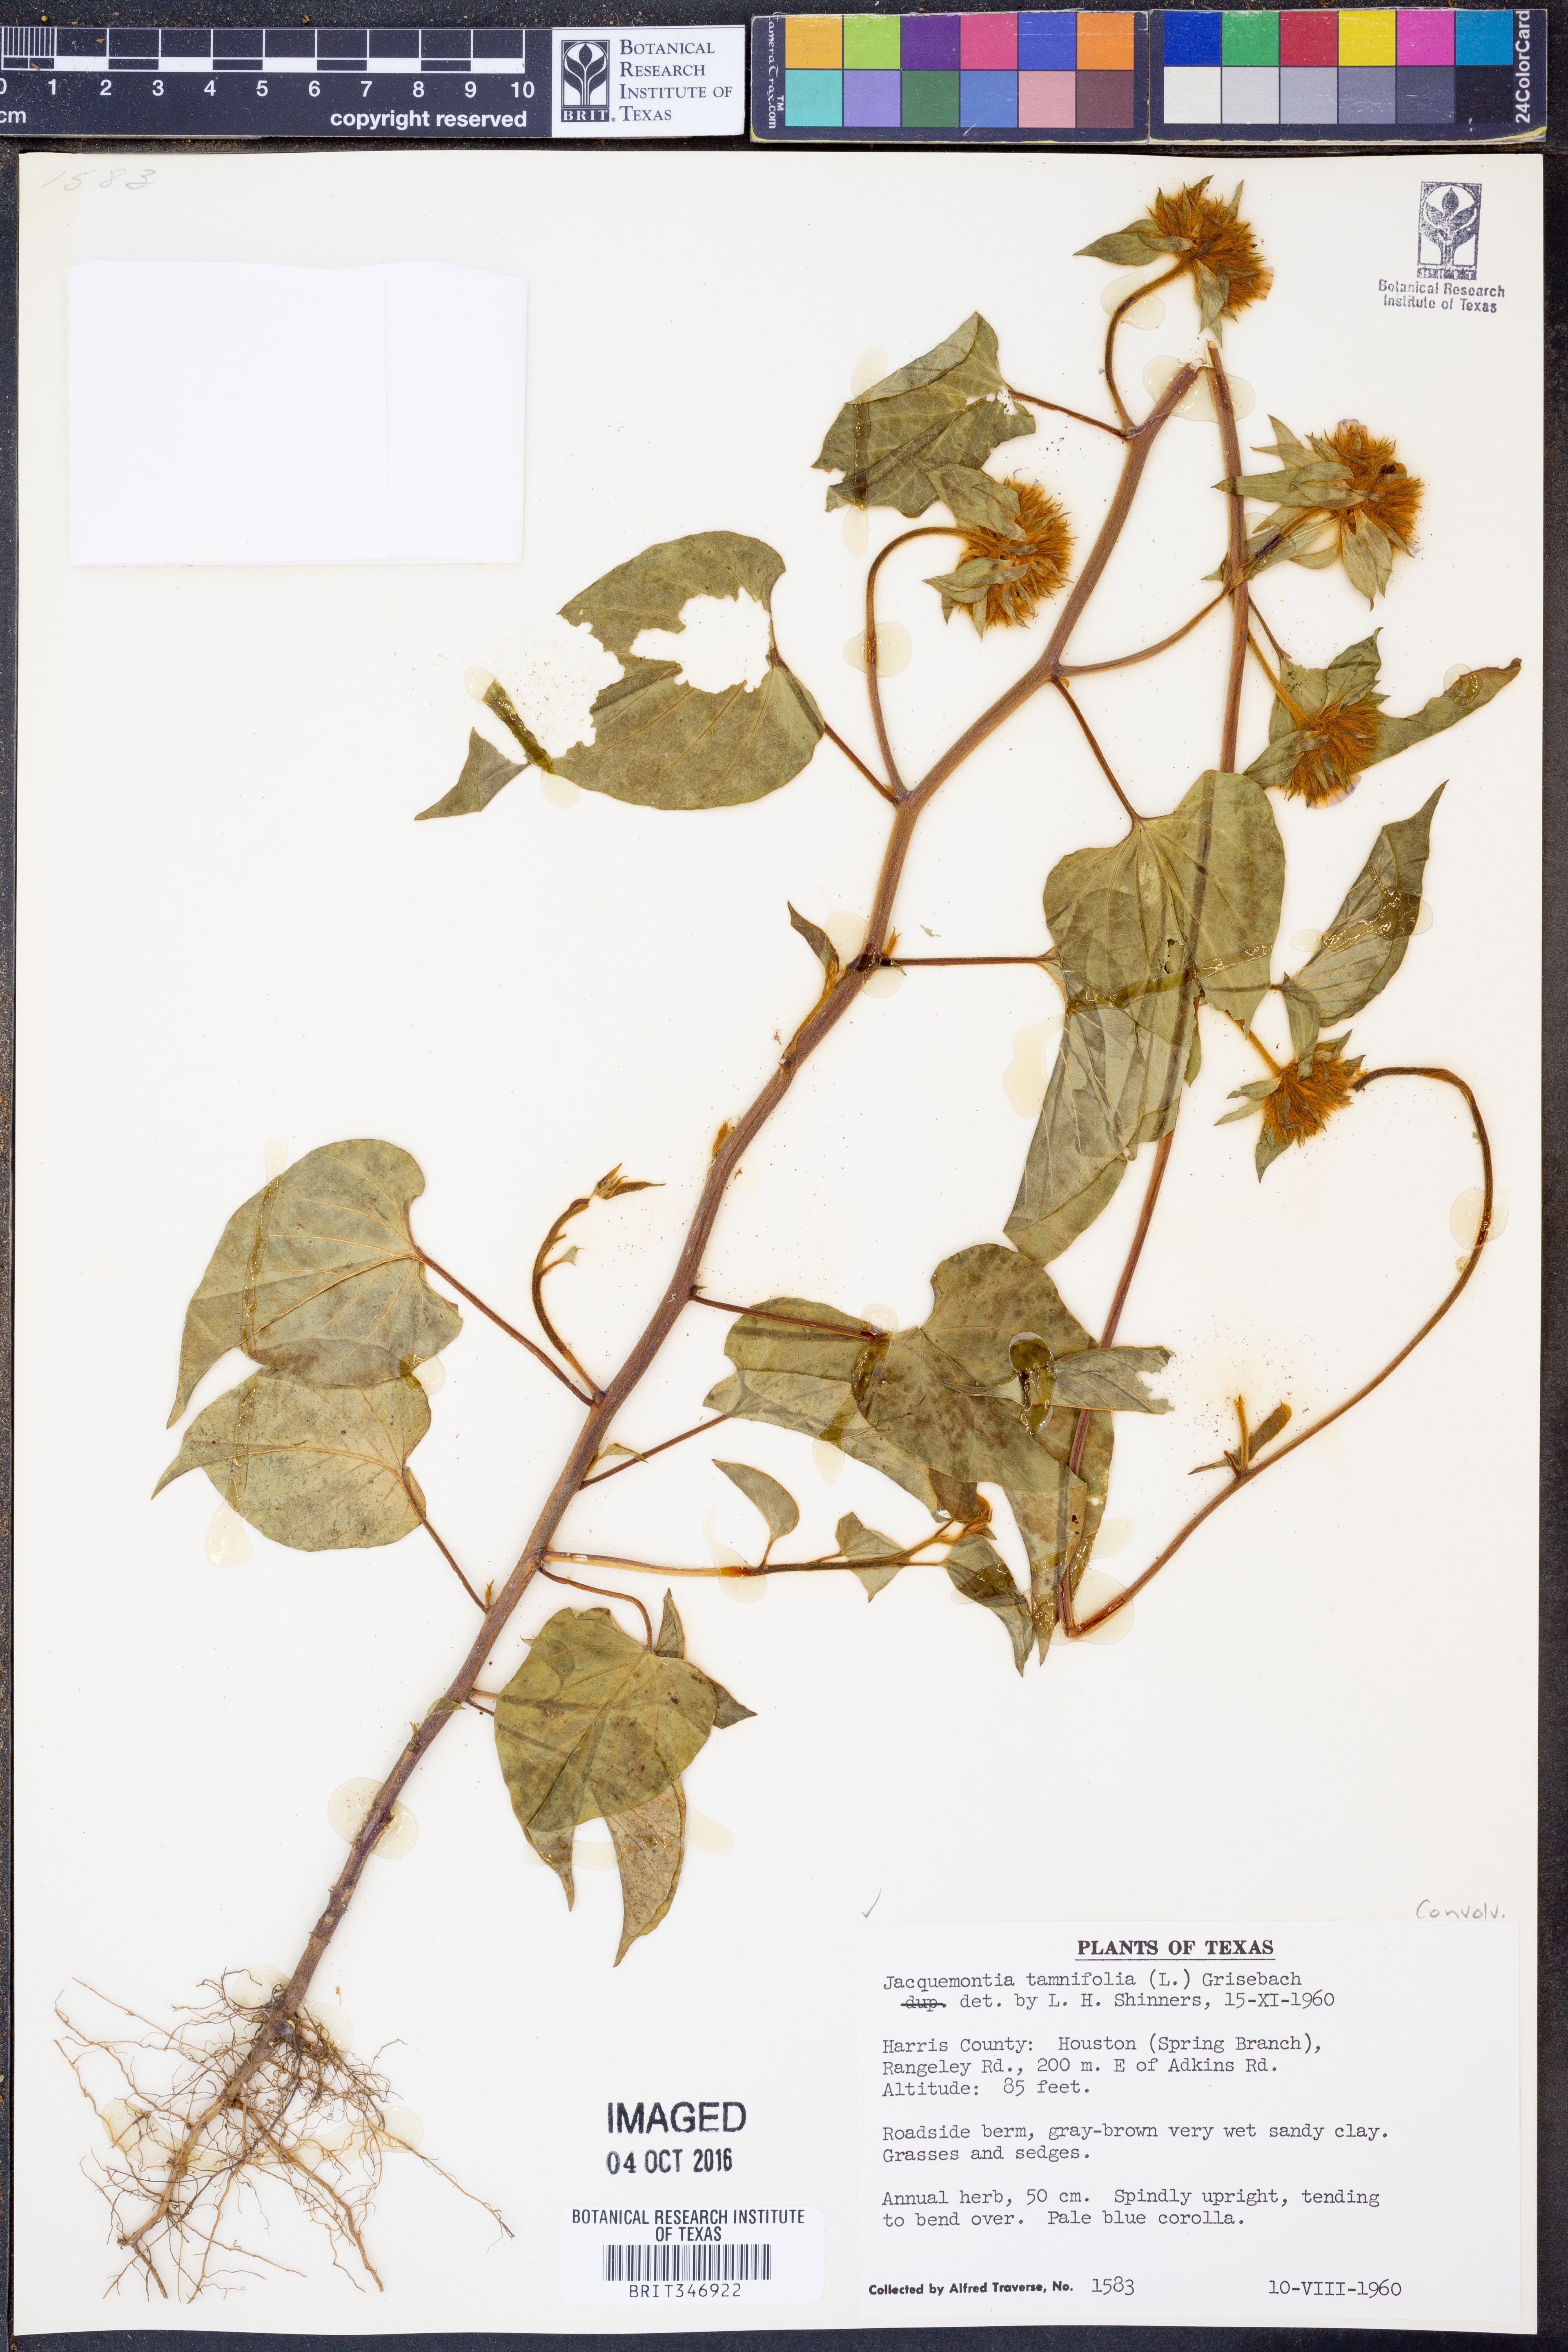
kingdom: Plantae
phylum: Tracheophyta
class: Magnoliopsida
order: Solanales
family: Convolvulaceae
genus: Jacquemontia
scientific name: Jacquemontia tamnifolia
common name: Hairy clustervine
